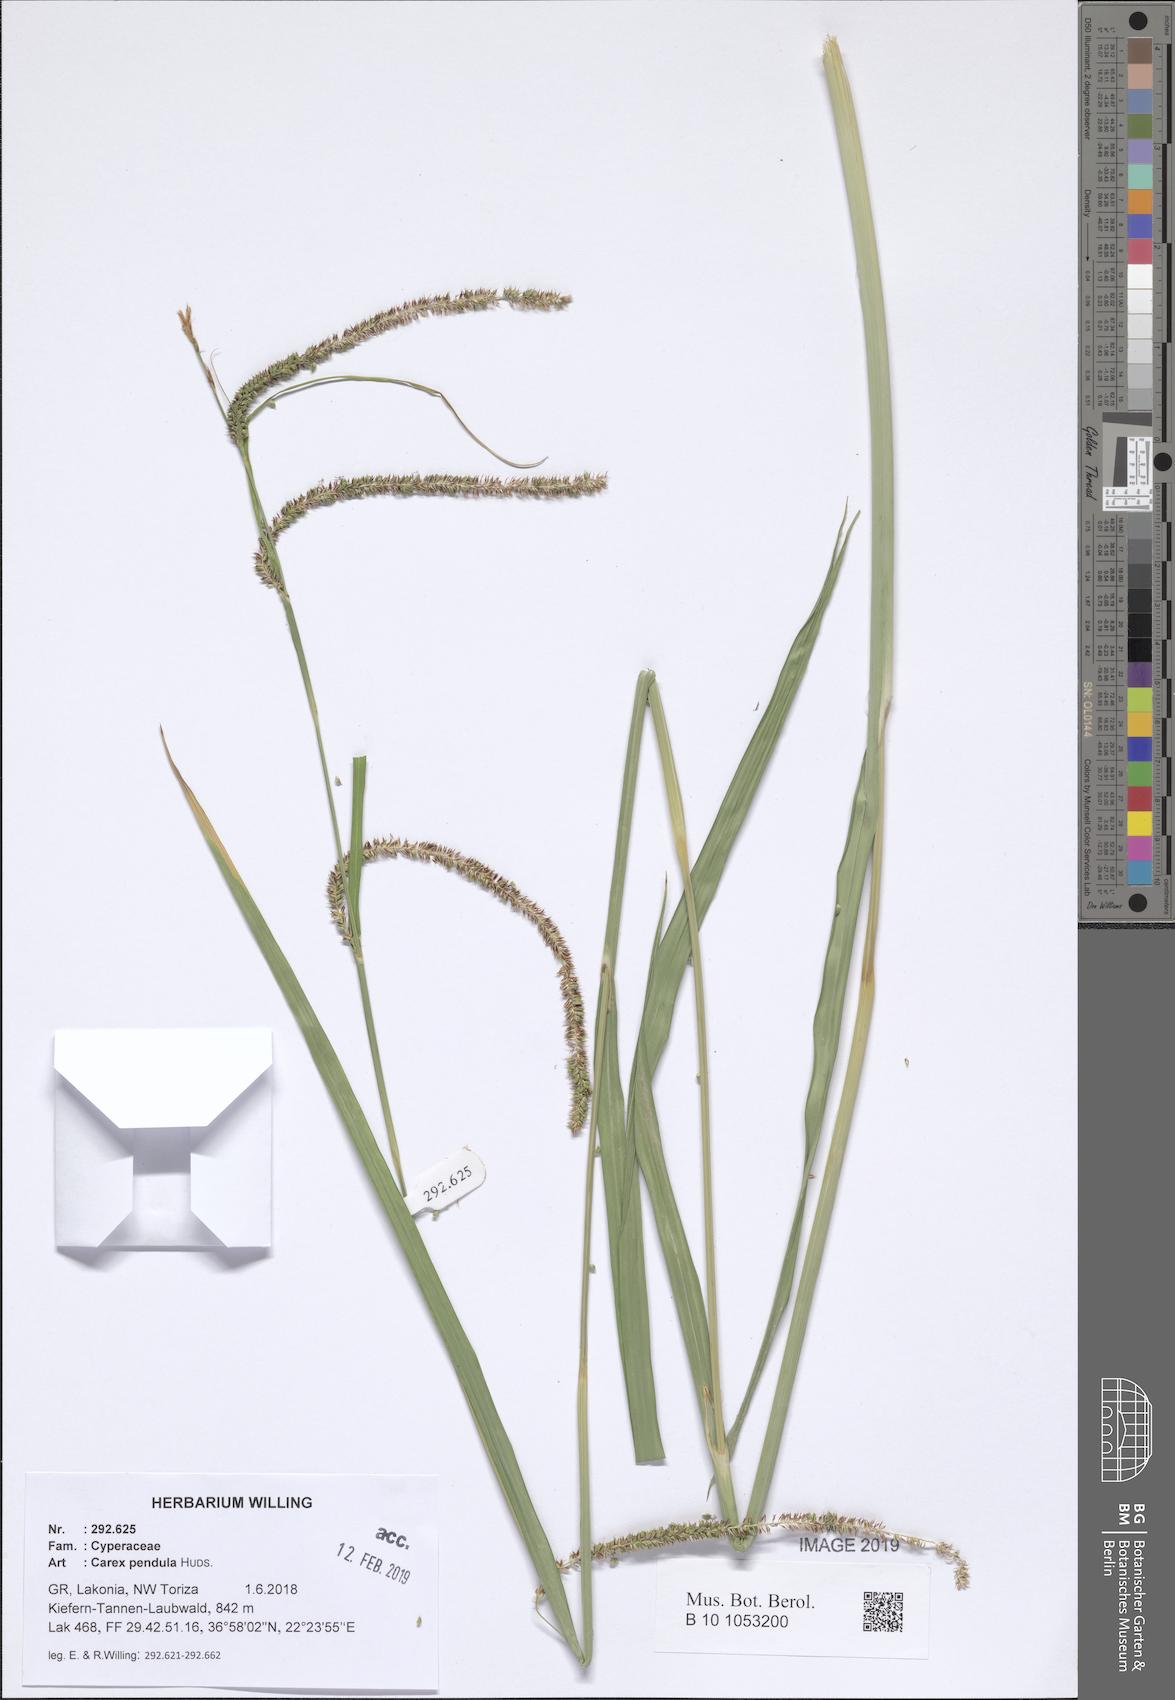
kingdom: Plantae
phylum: Tracheophyta
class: Liliopsida
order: Poales
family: Cyperaceae
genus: Carex
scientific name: Carex pendula
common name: Pendulous sedge
